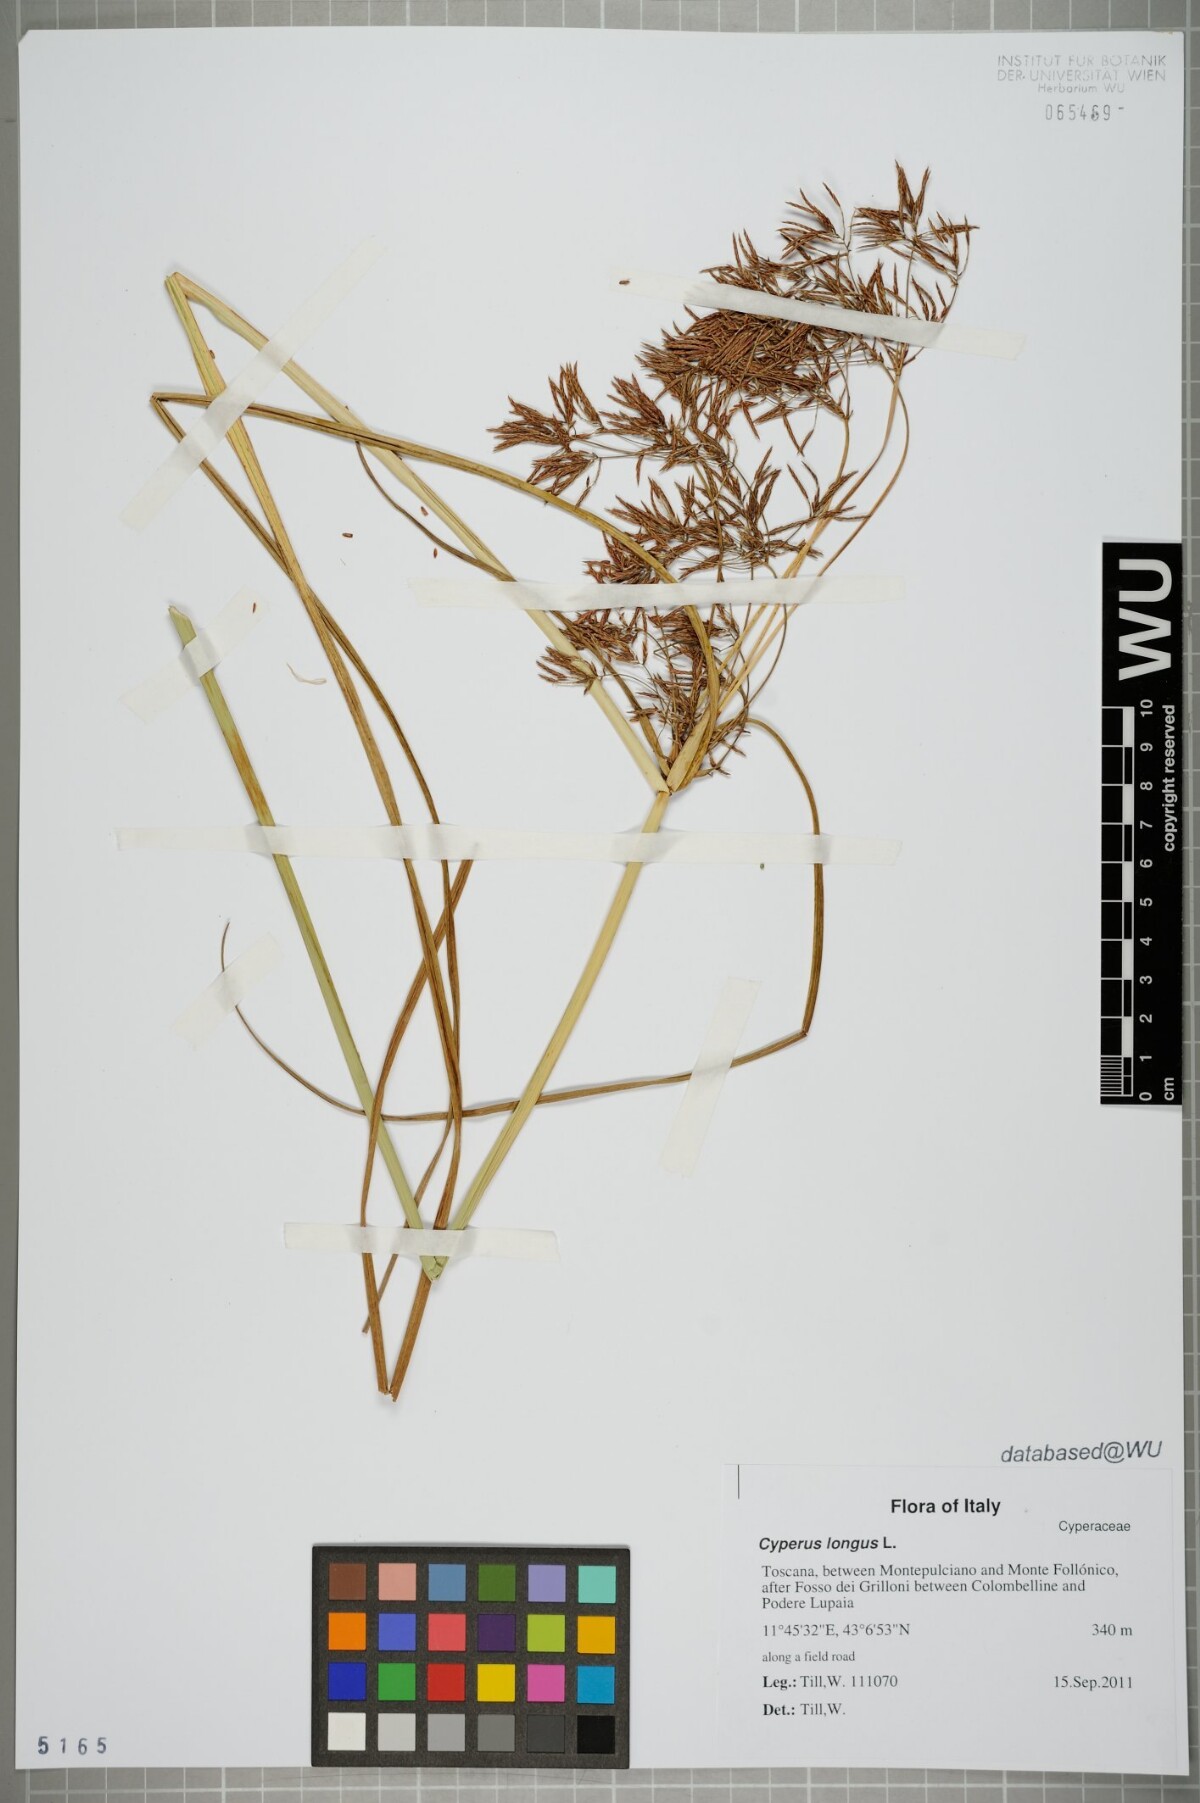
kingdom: Plantae
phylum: Tracheophyta
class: Liliopsida
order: Poales
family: Cyperaceae
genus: Cyperus
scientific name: Cyperus longus
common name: Galingale
